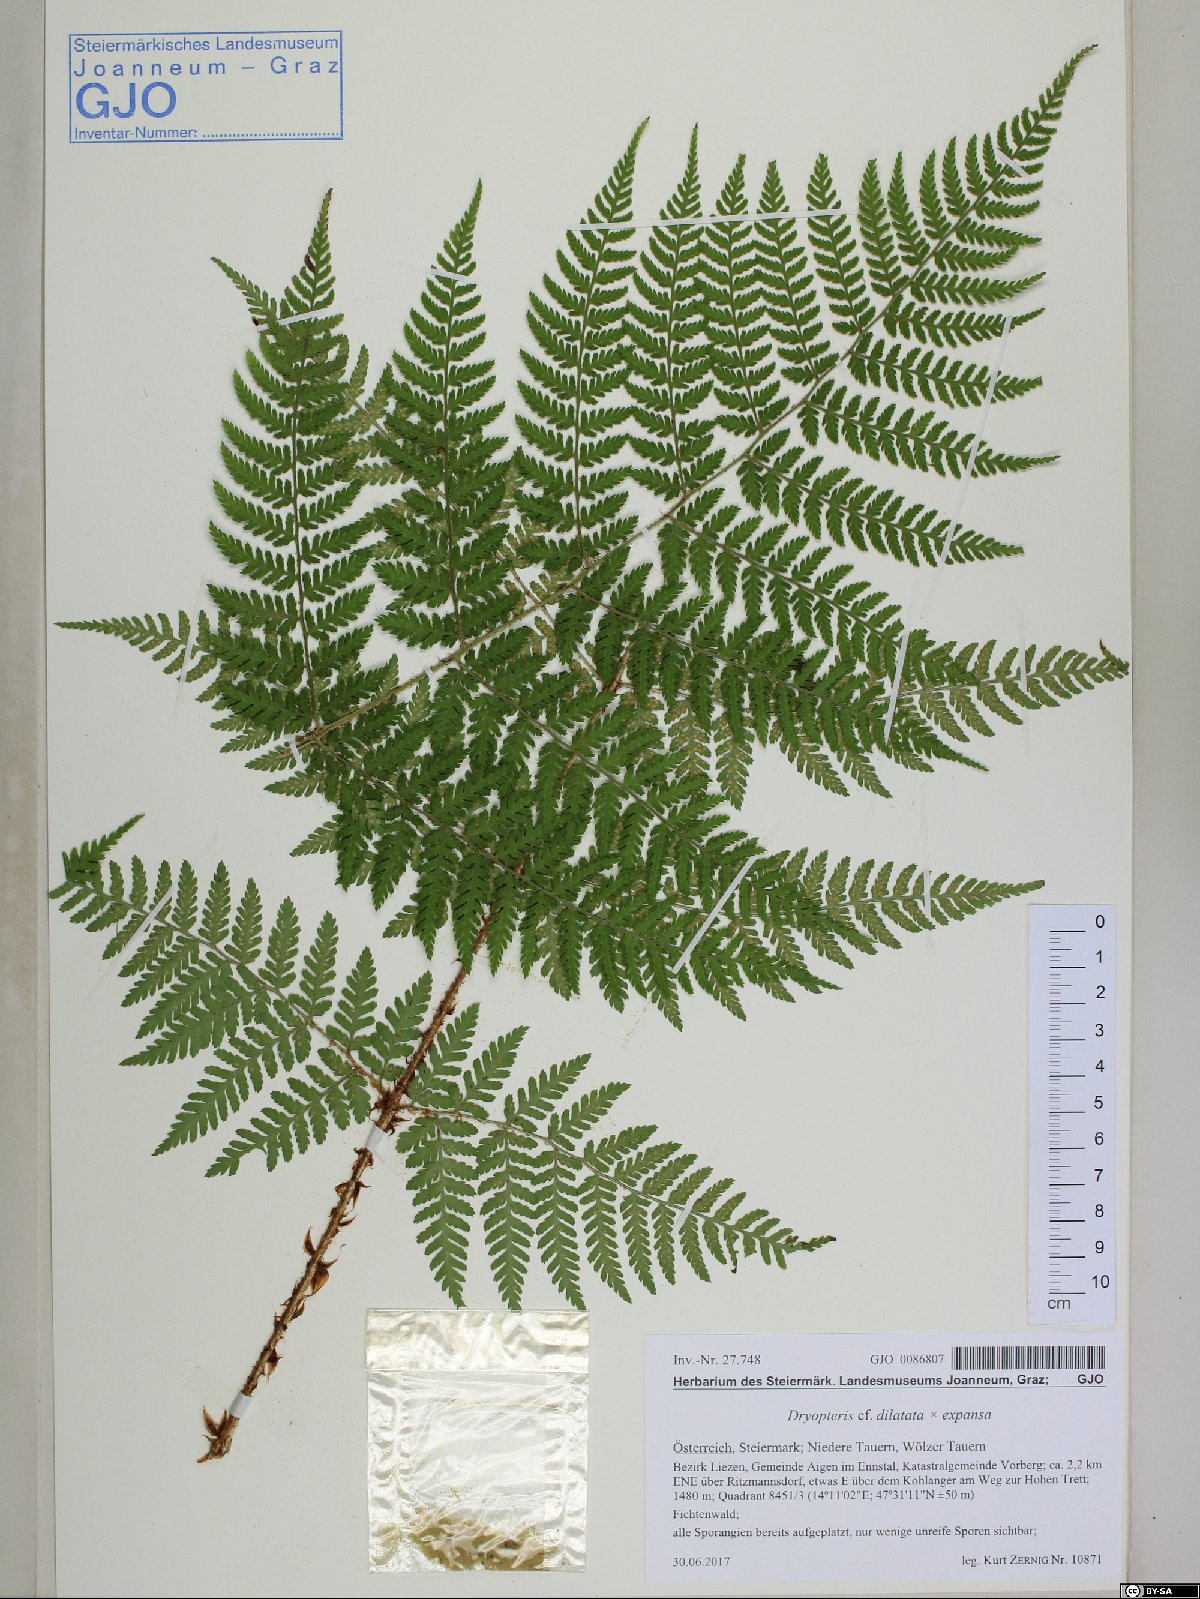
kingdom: Plantae
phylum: Tracheophyta
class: Polypodiopsida
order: Polypodiales
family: Dryopteridaceae
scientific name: Dryopteridaceae
